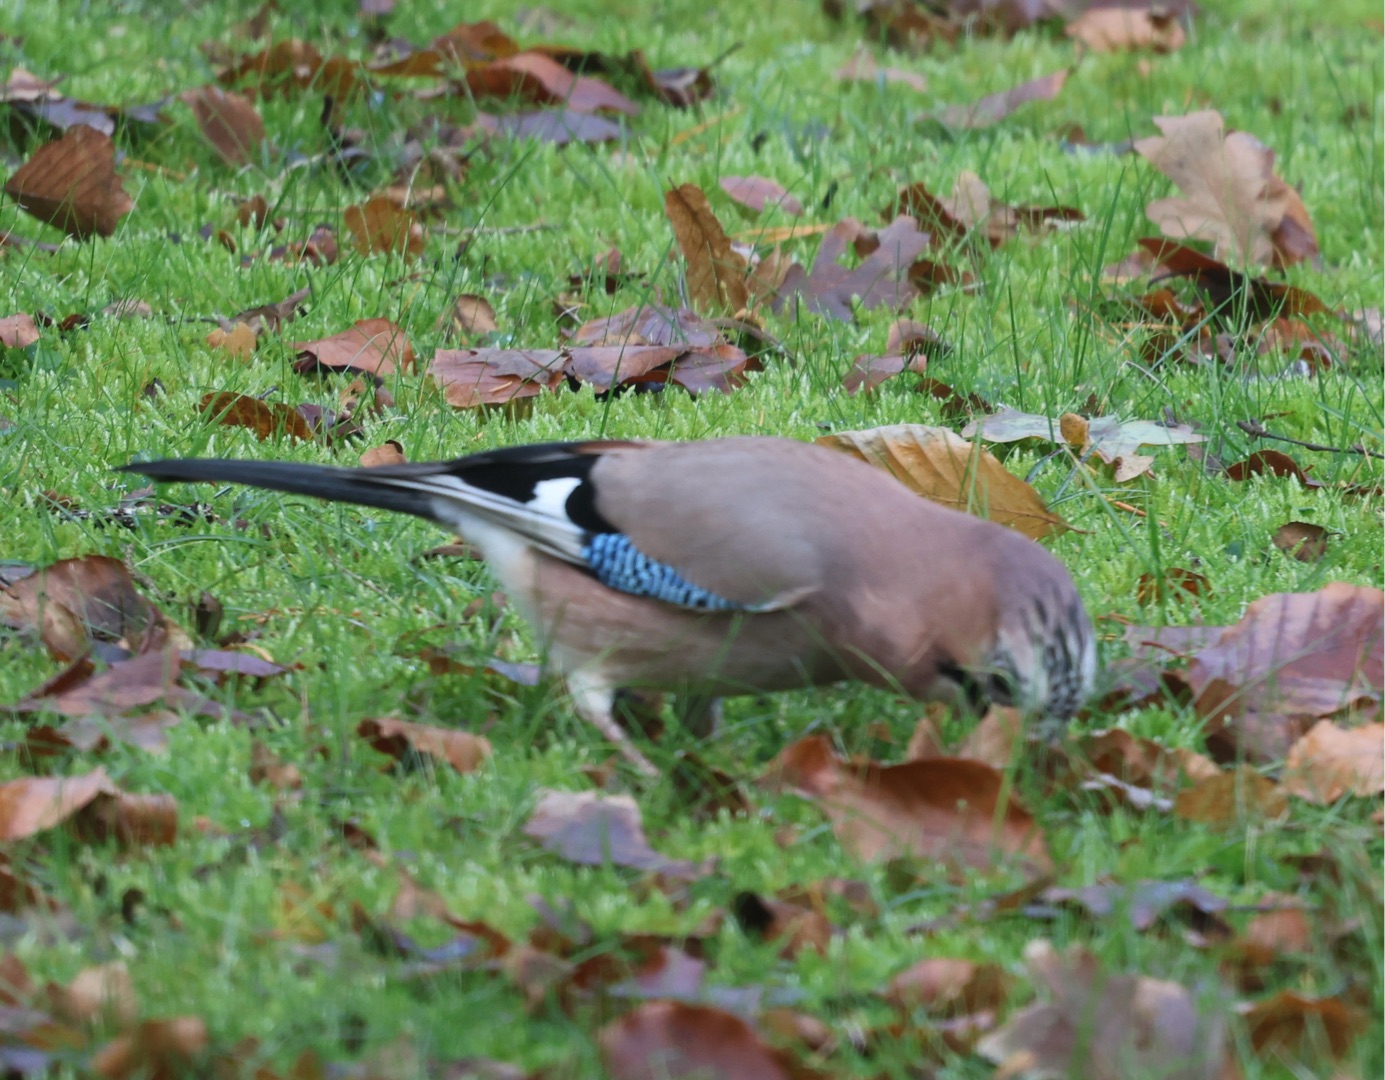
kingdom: Animalia
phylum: Chordata
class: Aves
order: Passeriformes
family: Corvidae
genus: Garrulus
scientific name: Garrulus glandarius
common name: Skovskade
